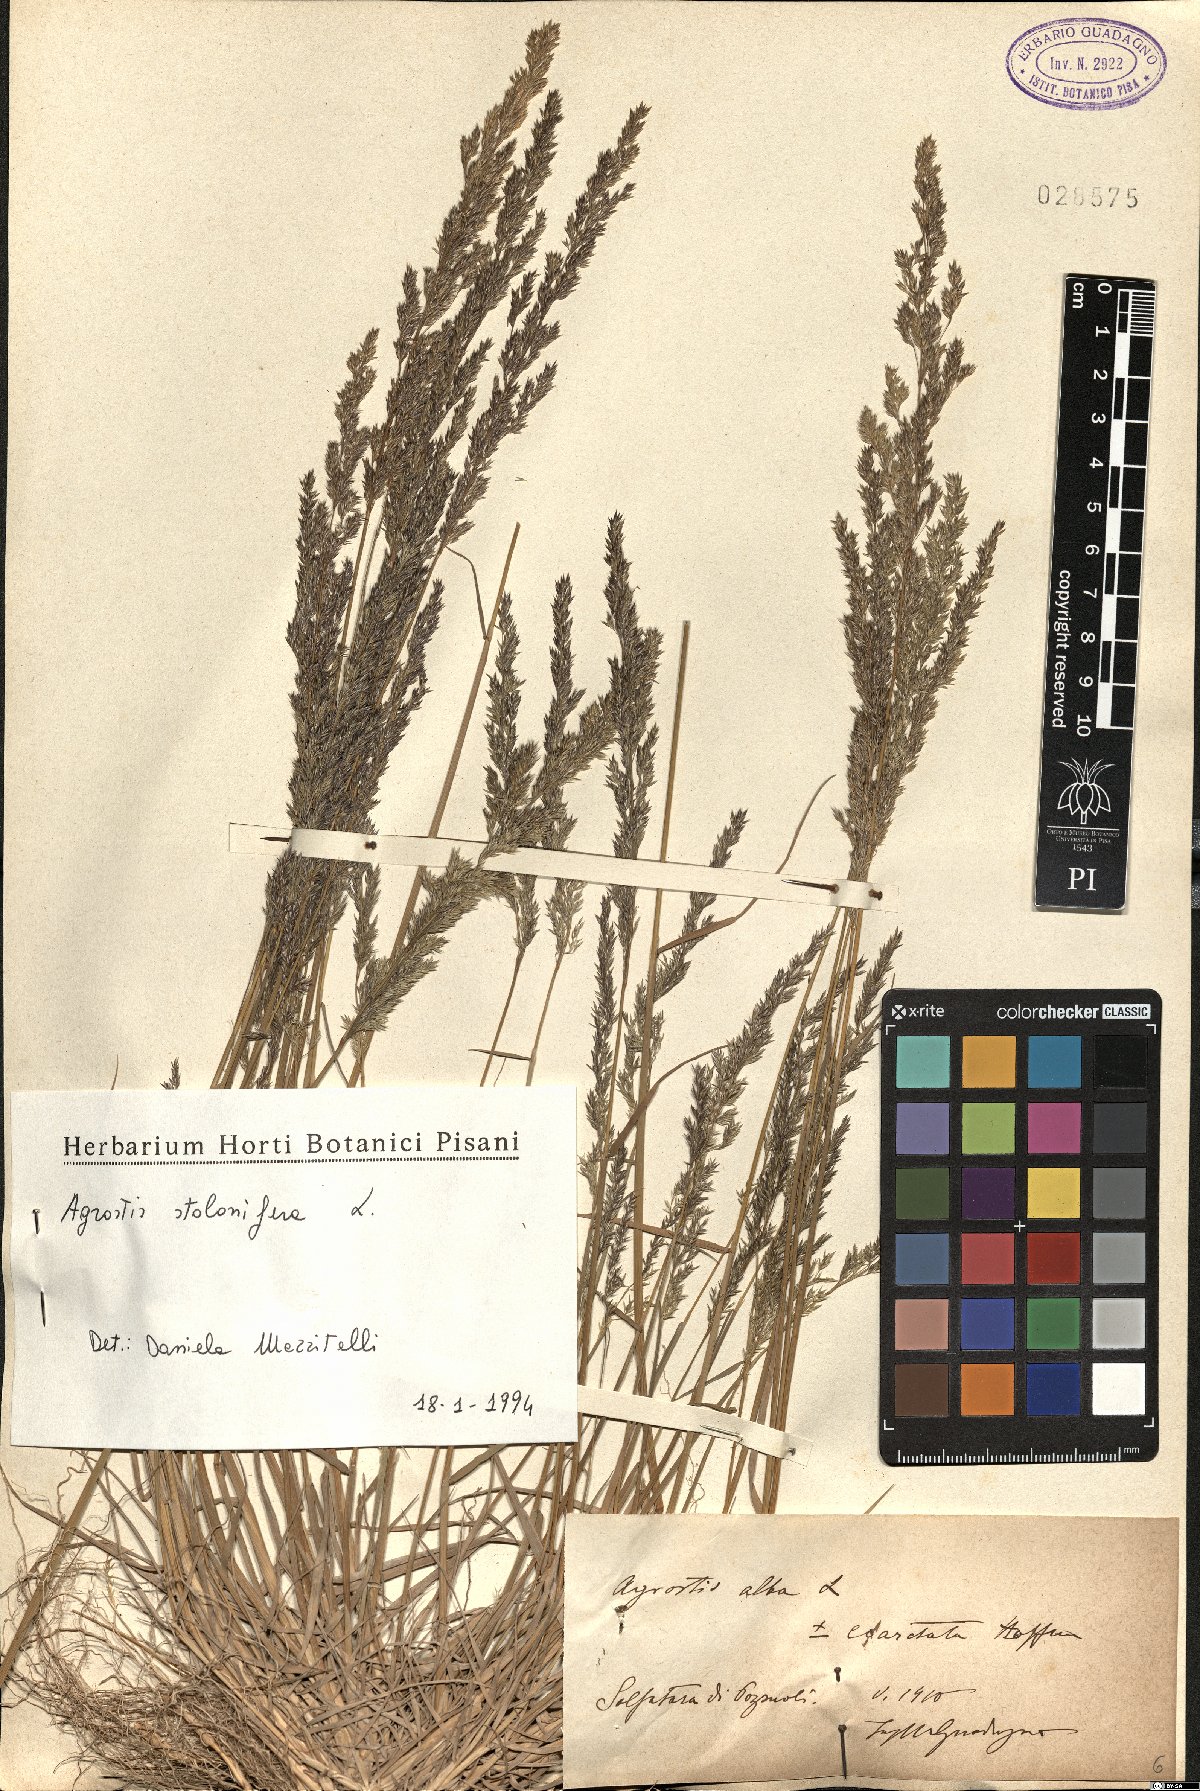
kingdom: Plantae
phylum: Tracheophyta
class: Liliopsida
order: Poales
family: Poaceae
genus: Agrostis
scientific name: Agrostis stolonifera
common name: Creeping bentgrass
